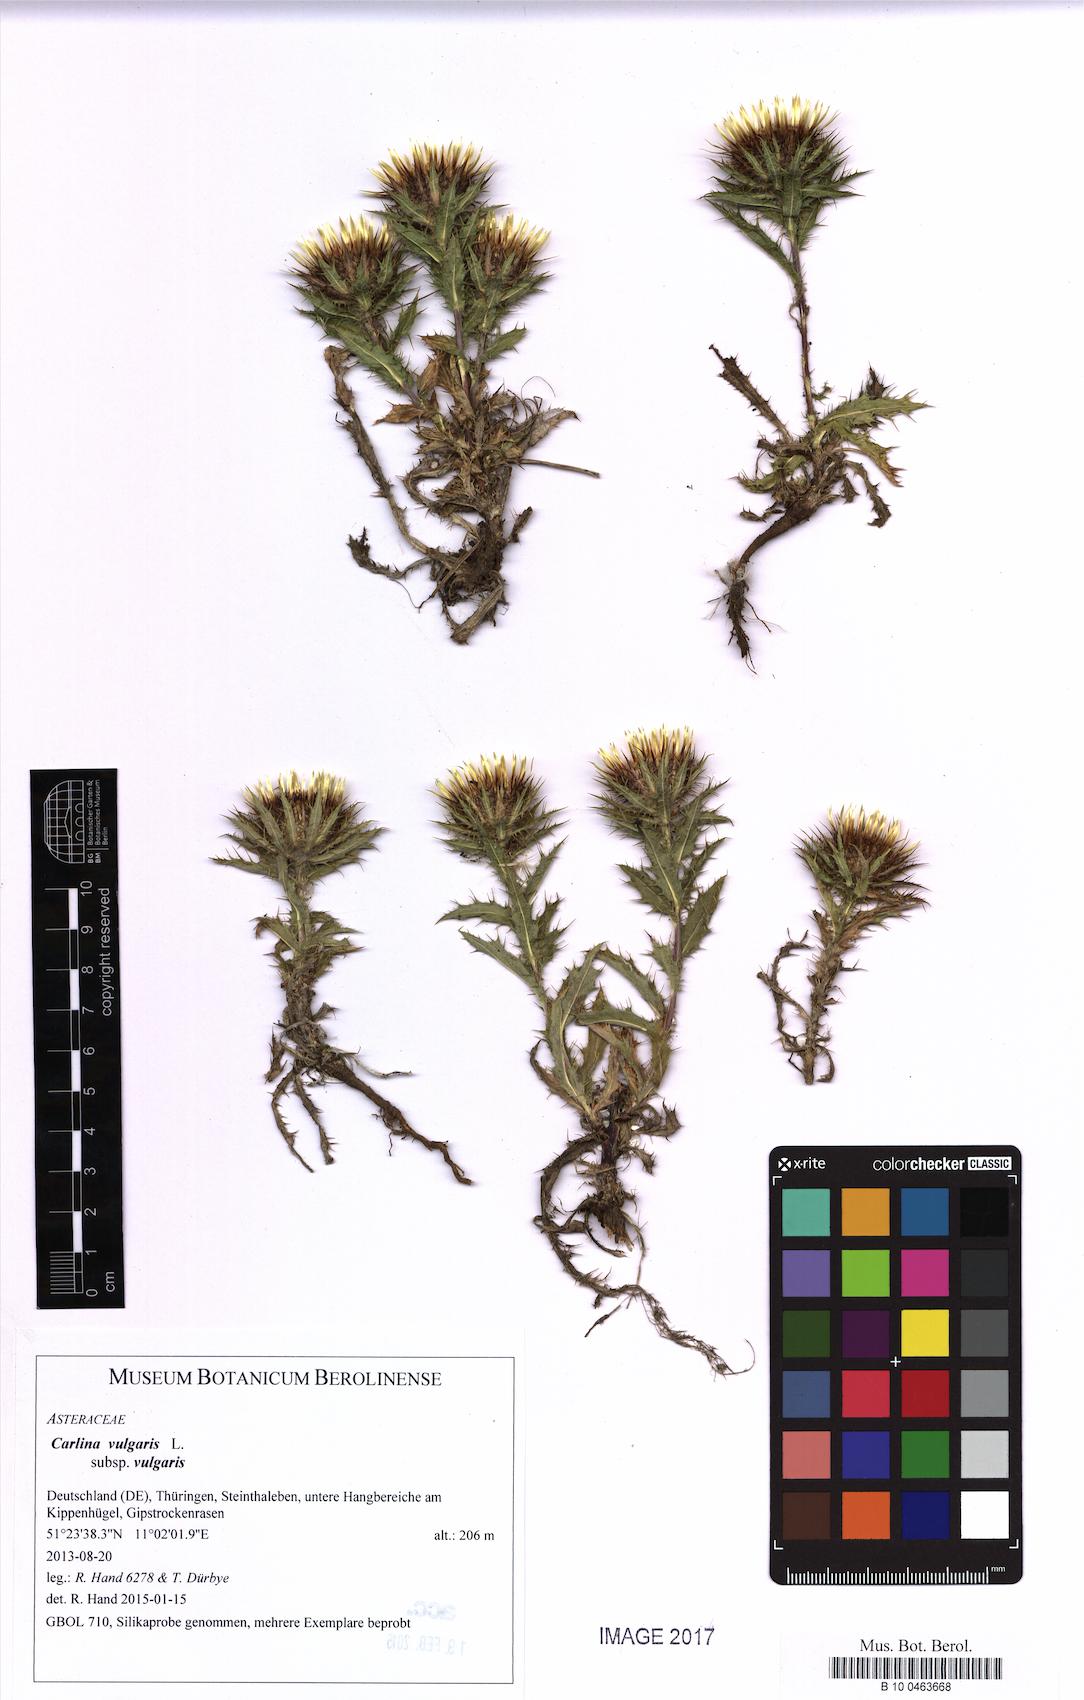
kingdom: Plantae
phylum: Tracheophyta
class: Magnoliopsida
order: Asterales
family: Asteraceae
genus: Carlina
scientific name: Carlina vulgaris
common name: Carline thistle
